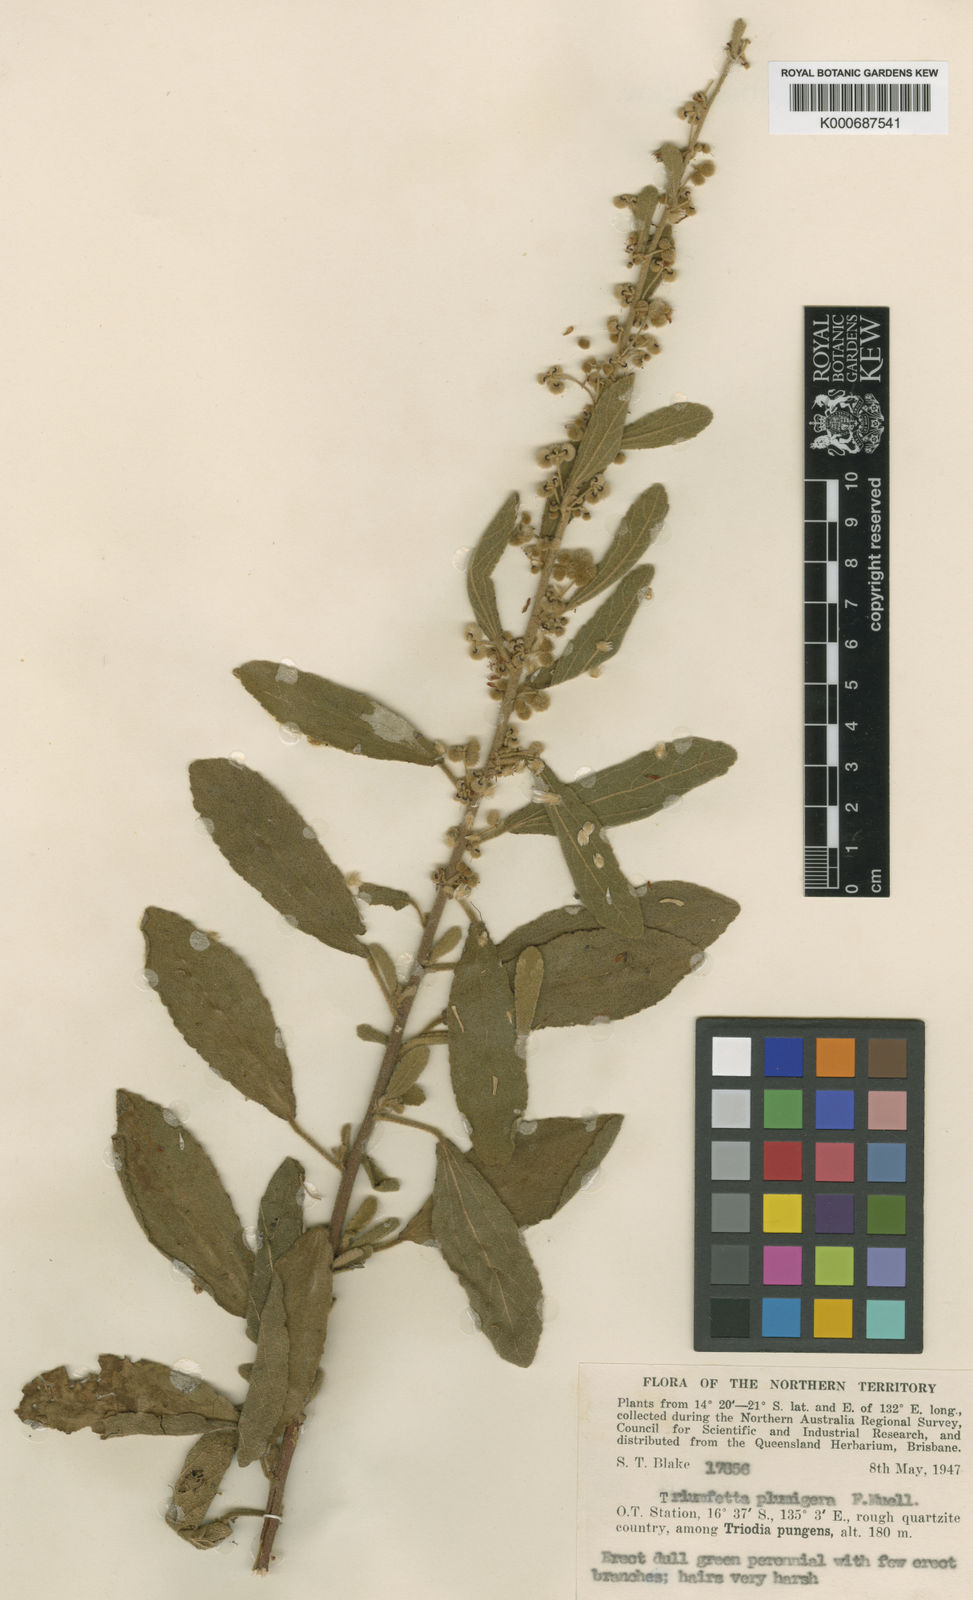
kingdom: Plantae
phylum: Tracheophyta
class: Magnoliopsida
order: Malvales
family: Malvaceae
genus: Triumfetta
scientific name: Triumfetta plumigera
